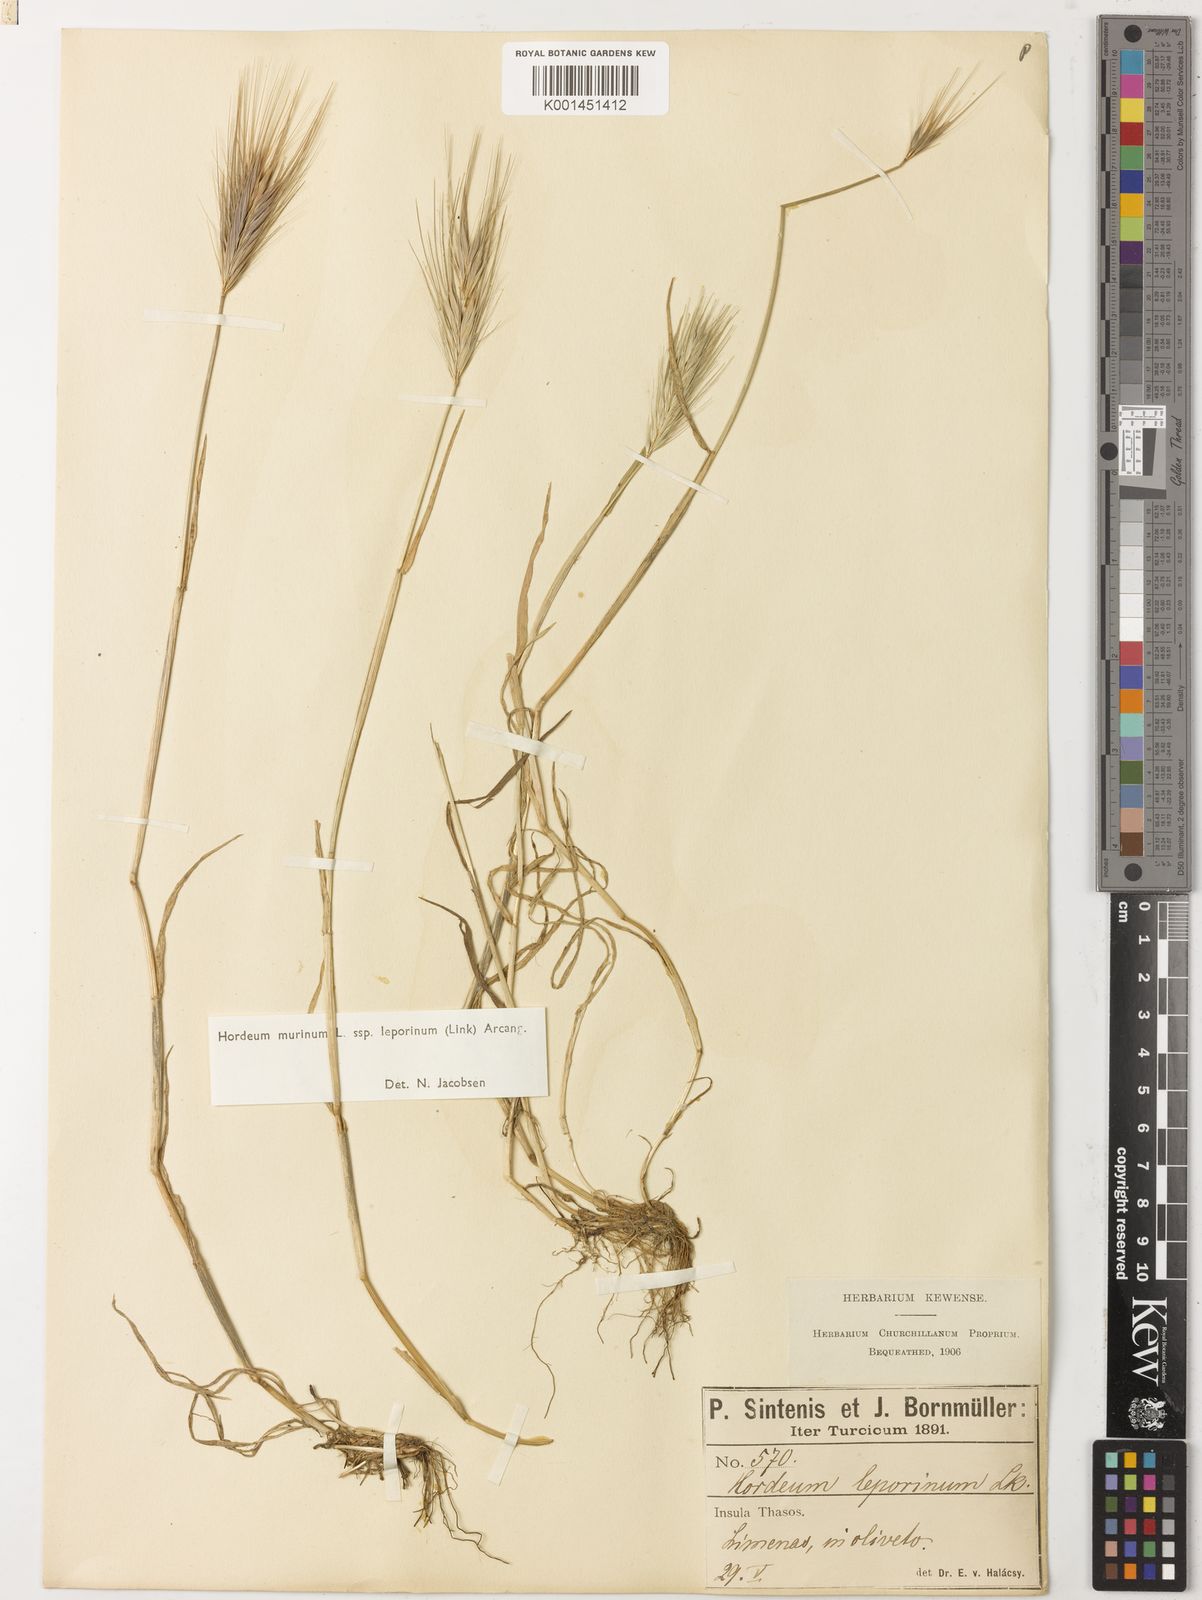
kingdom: Plantae
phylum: Tracheophyta
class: Liliopsida
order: Poales
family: Poaceae
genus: Hordeum
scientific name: Hordeum murinum
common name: Wall barley
